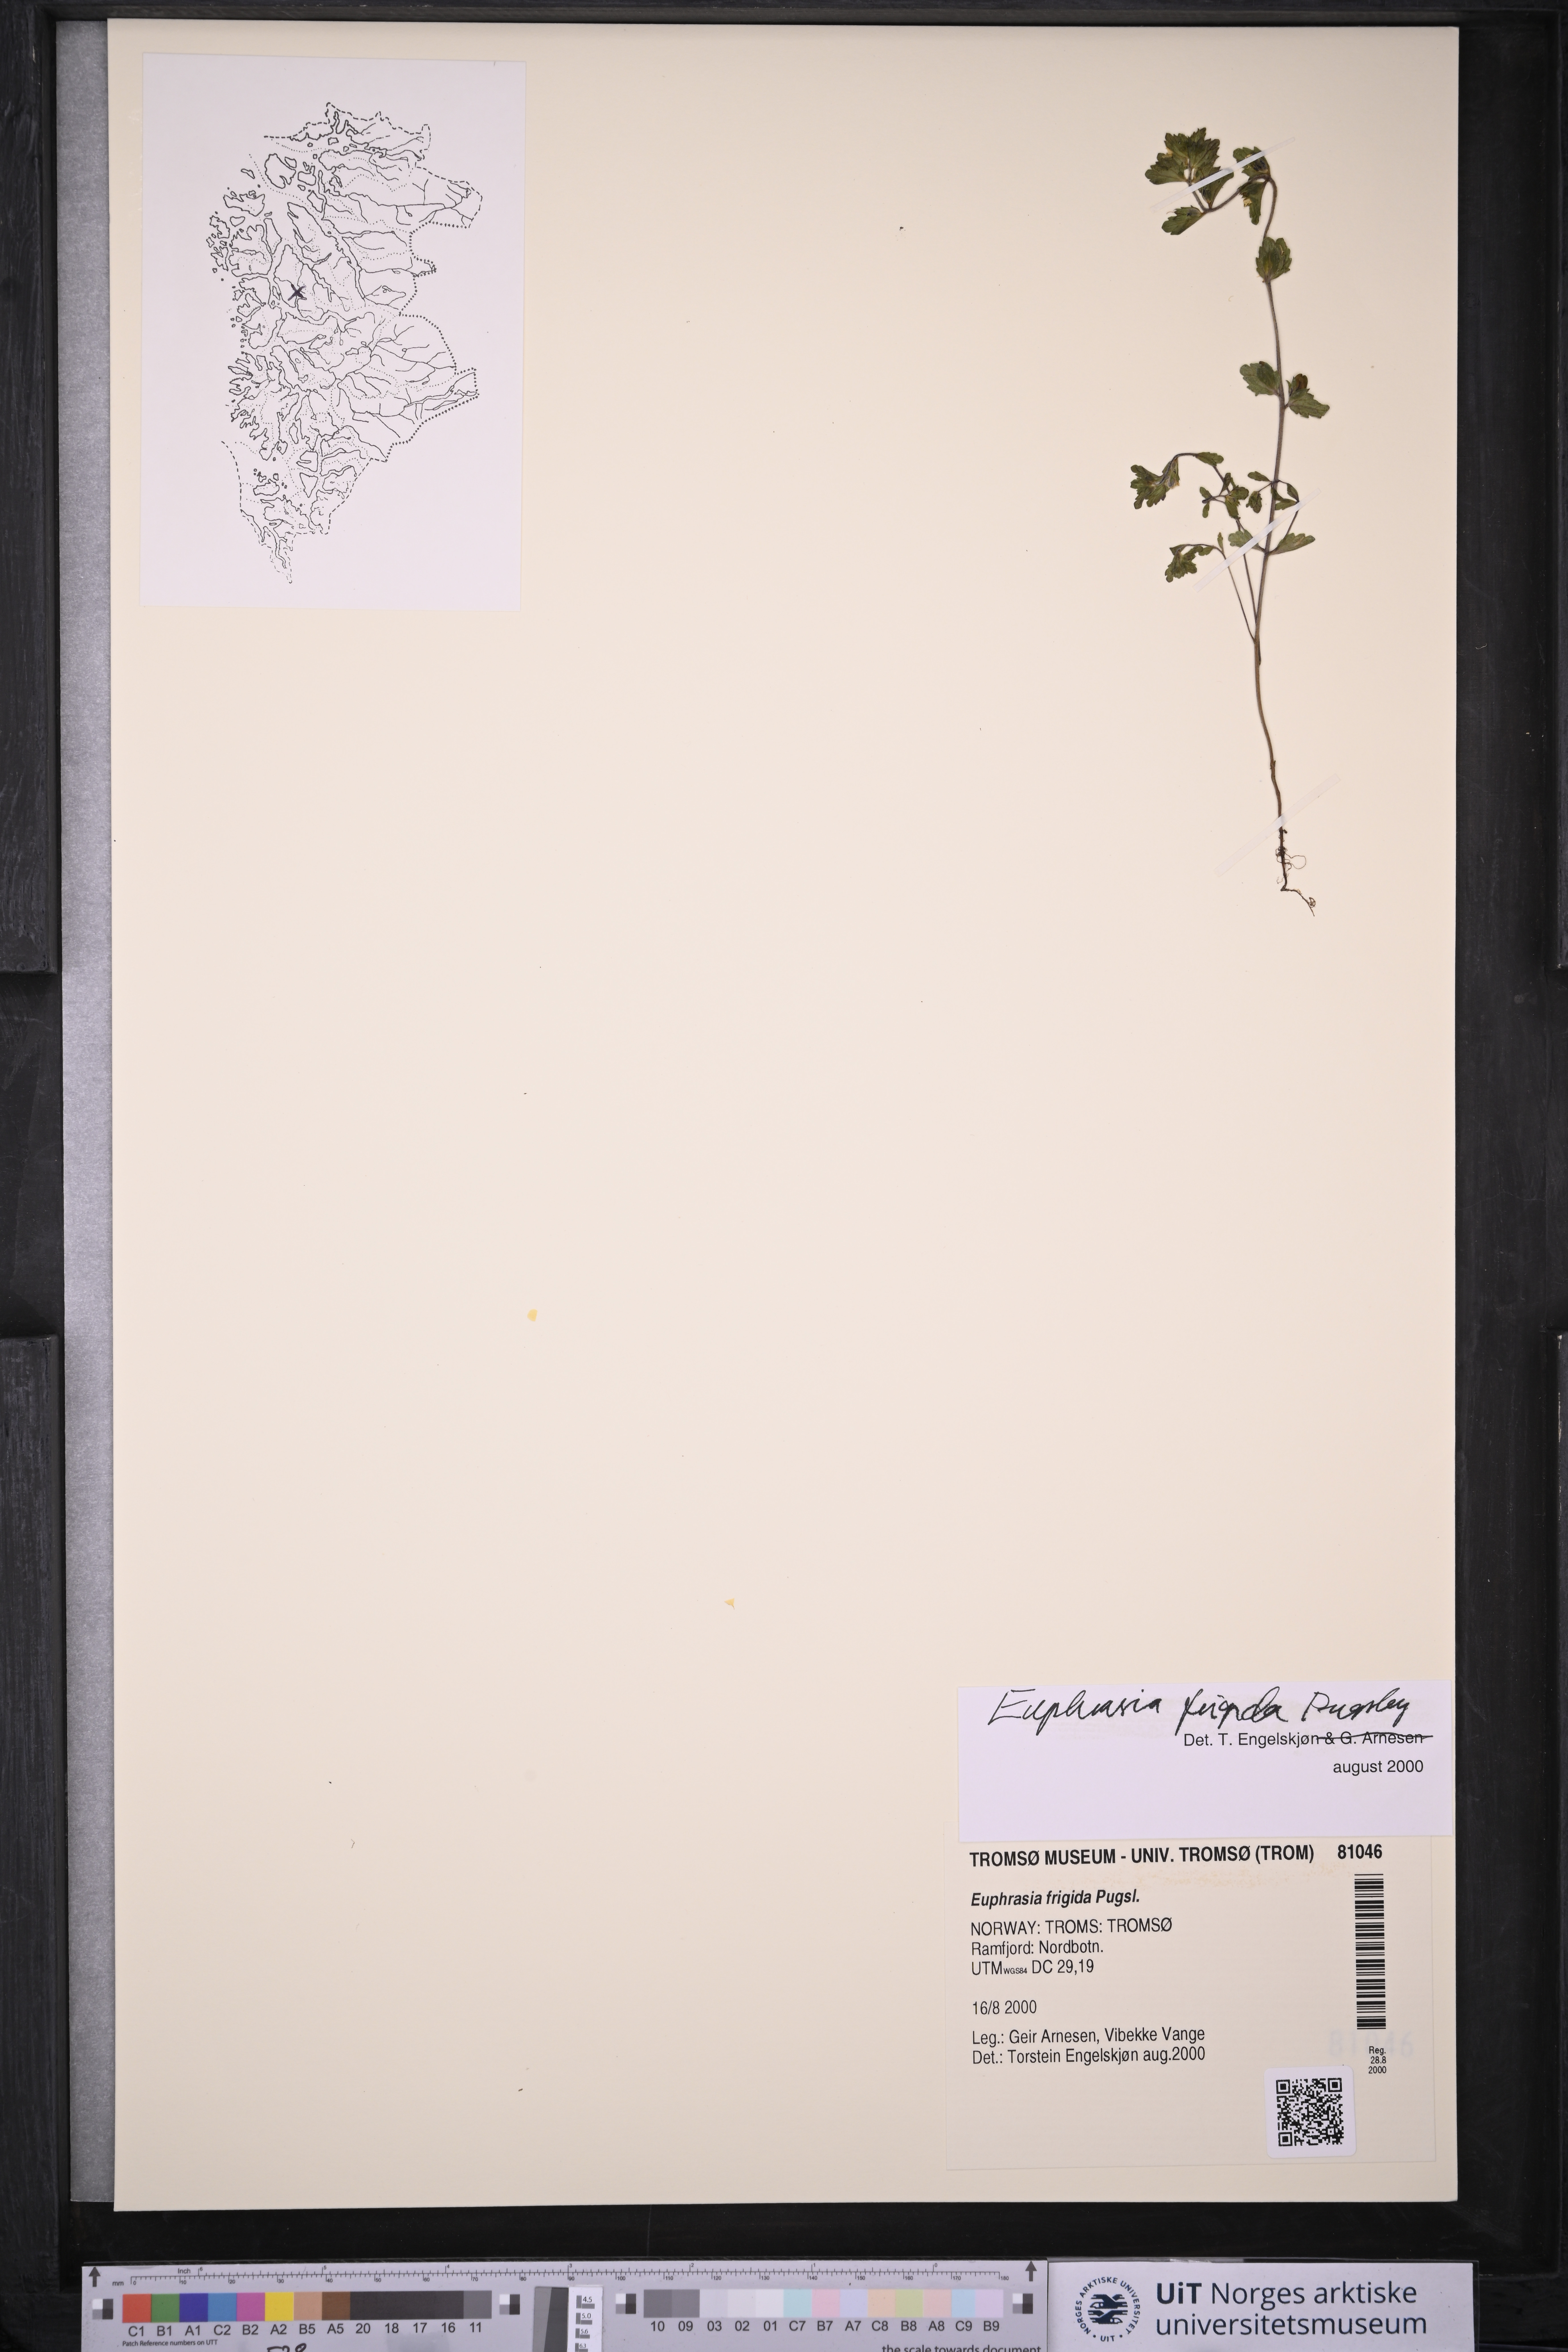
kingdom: Plantae
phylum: Tracheophyta
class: Magnoliopsida
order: Lamiales
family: Orobanchaceae
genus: Euphrasia
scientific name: Euphrasia frigida
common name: An eyebright
